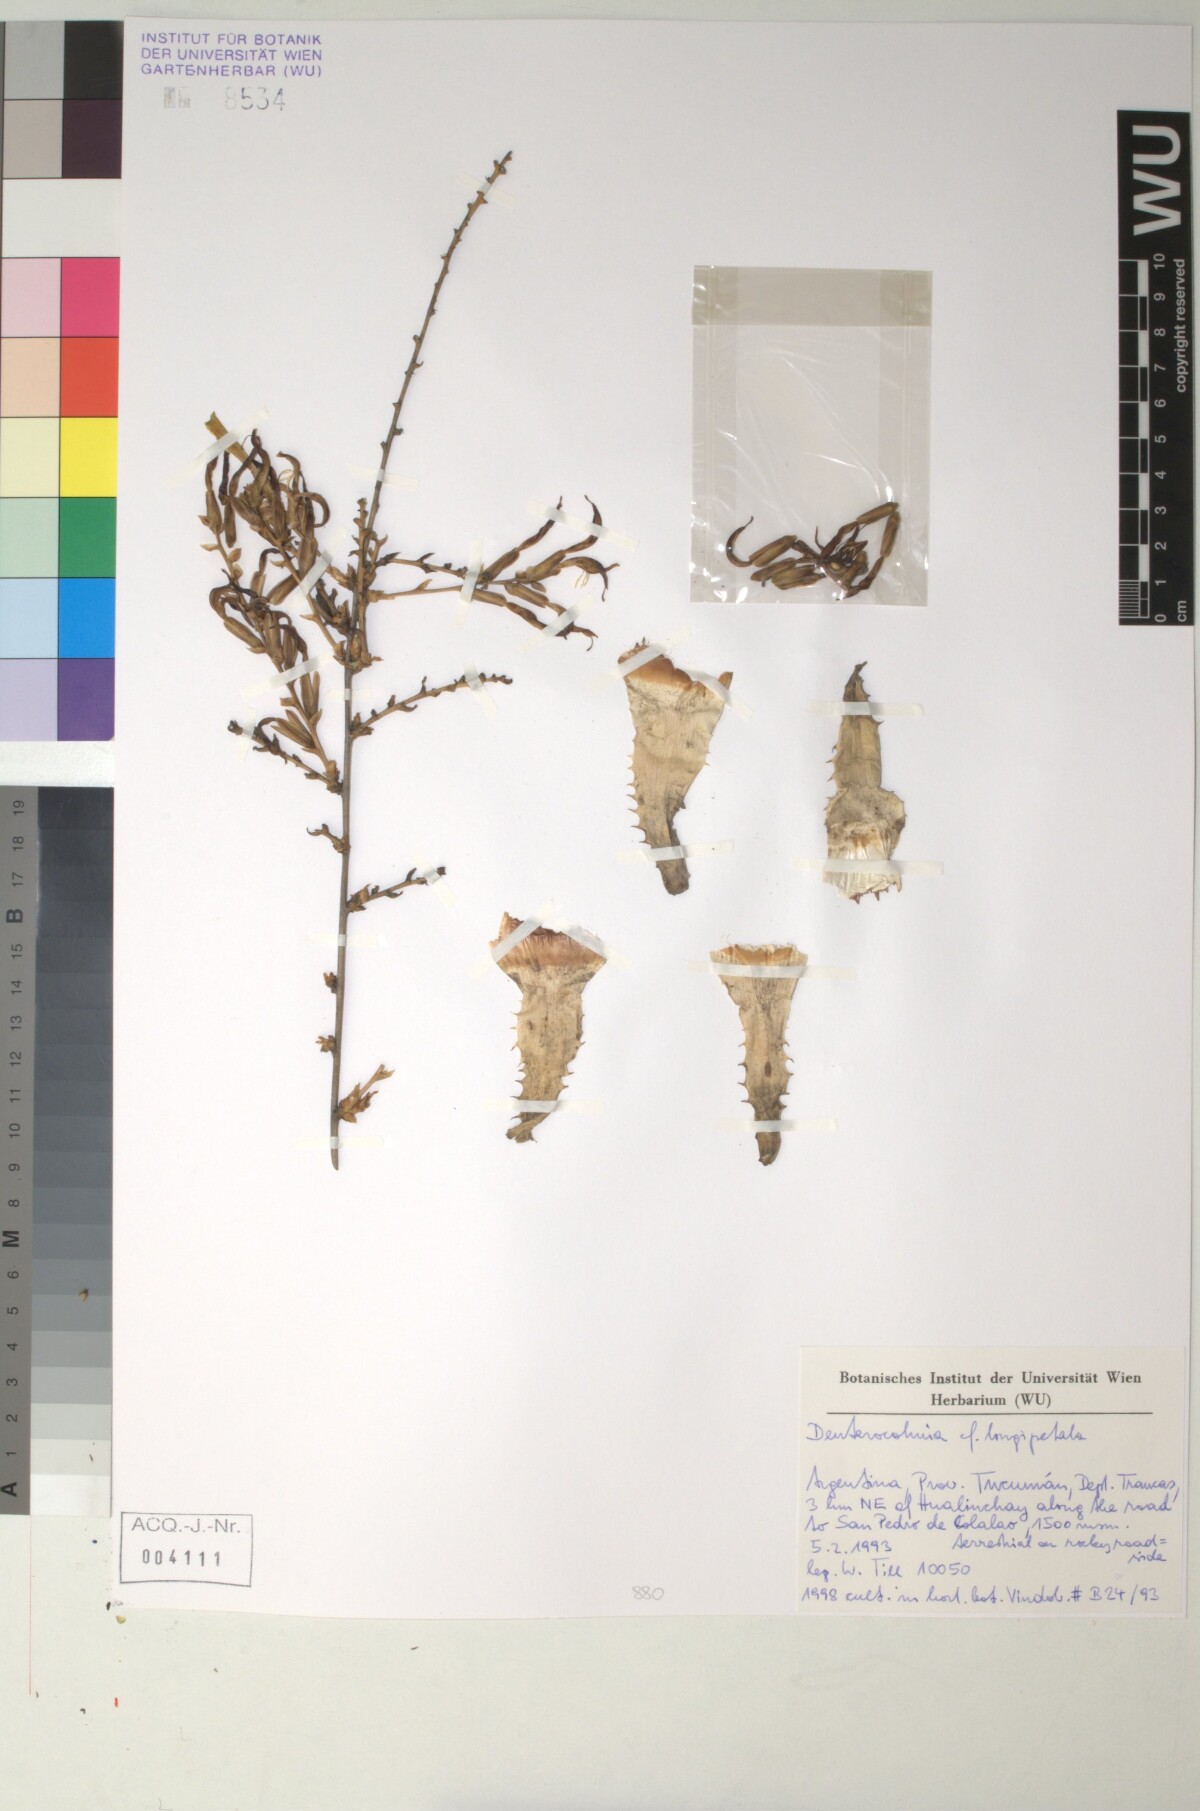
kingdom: Plantae
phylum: Tracheophyta
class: Liliopsida
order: Poales
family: Bromeliaceae
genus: Deuterocohnia
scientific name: Deuterocohnia longipetala
